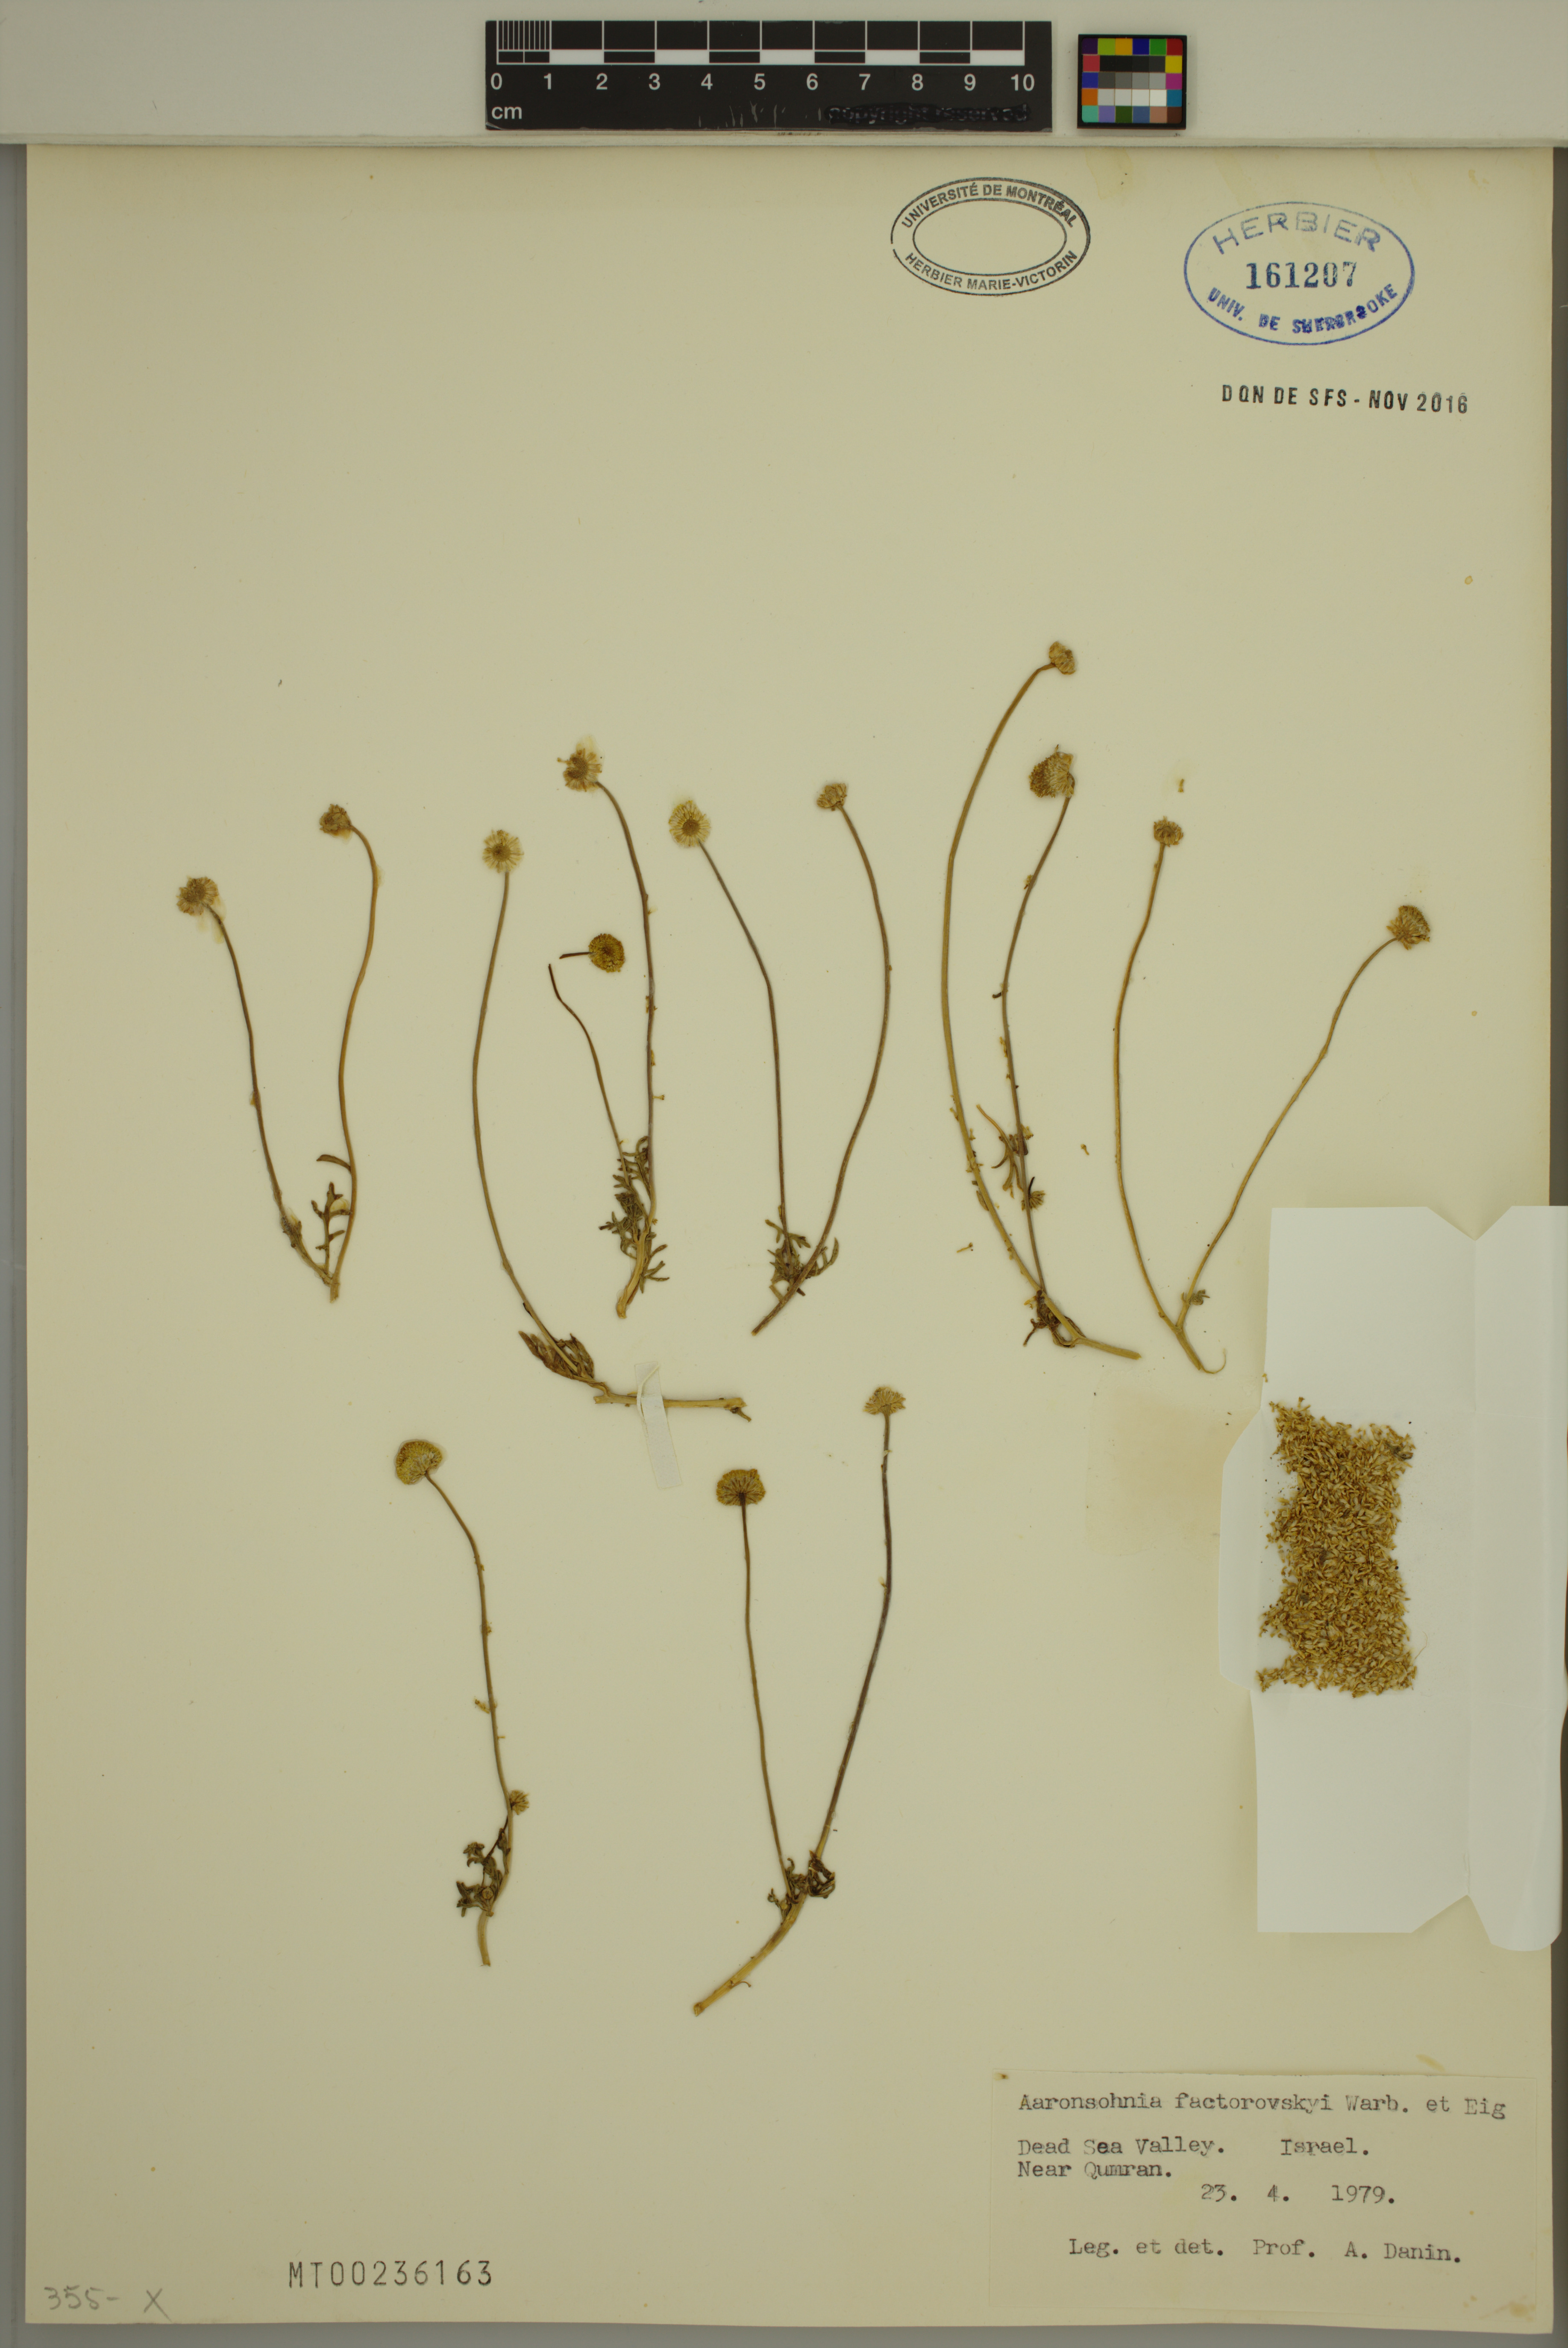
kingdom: Plantae
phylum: Tracheophyta
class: Magnoliopsida
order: Asterales
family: Asteraceae
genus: Otoglyphis
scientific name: Otoglyphis factorovskyi
